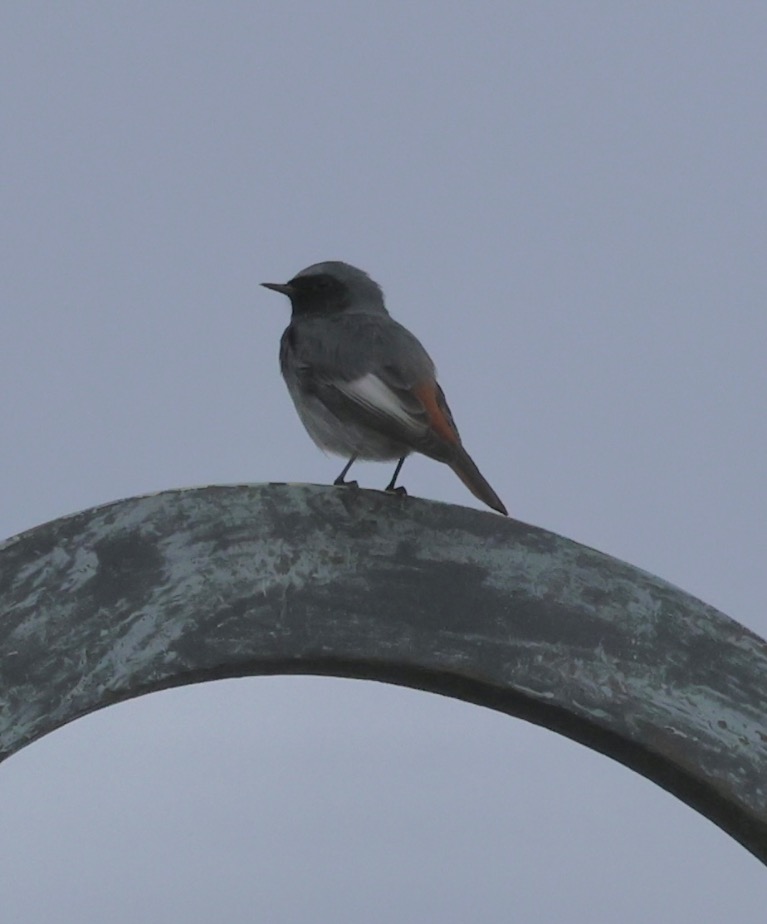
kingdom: Animalia
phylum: Chordata
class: Aves
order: Passeriformes
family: Muscicapidae
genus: Phoenicurus
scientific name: Phoenicurus ochruros
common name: Husrødstjert
